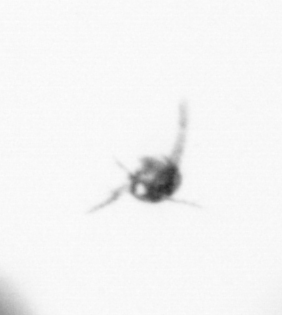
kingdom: Animalia
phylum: Arthropoda
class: Copepoda
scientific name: Copepoda
